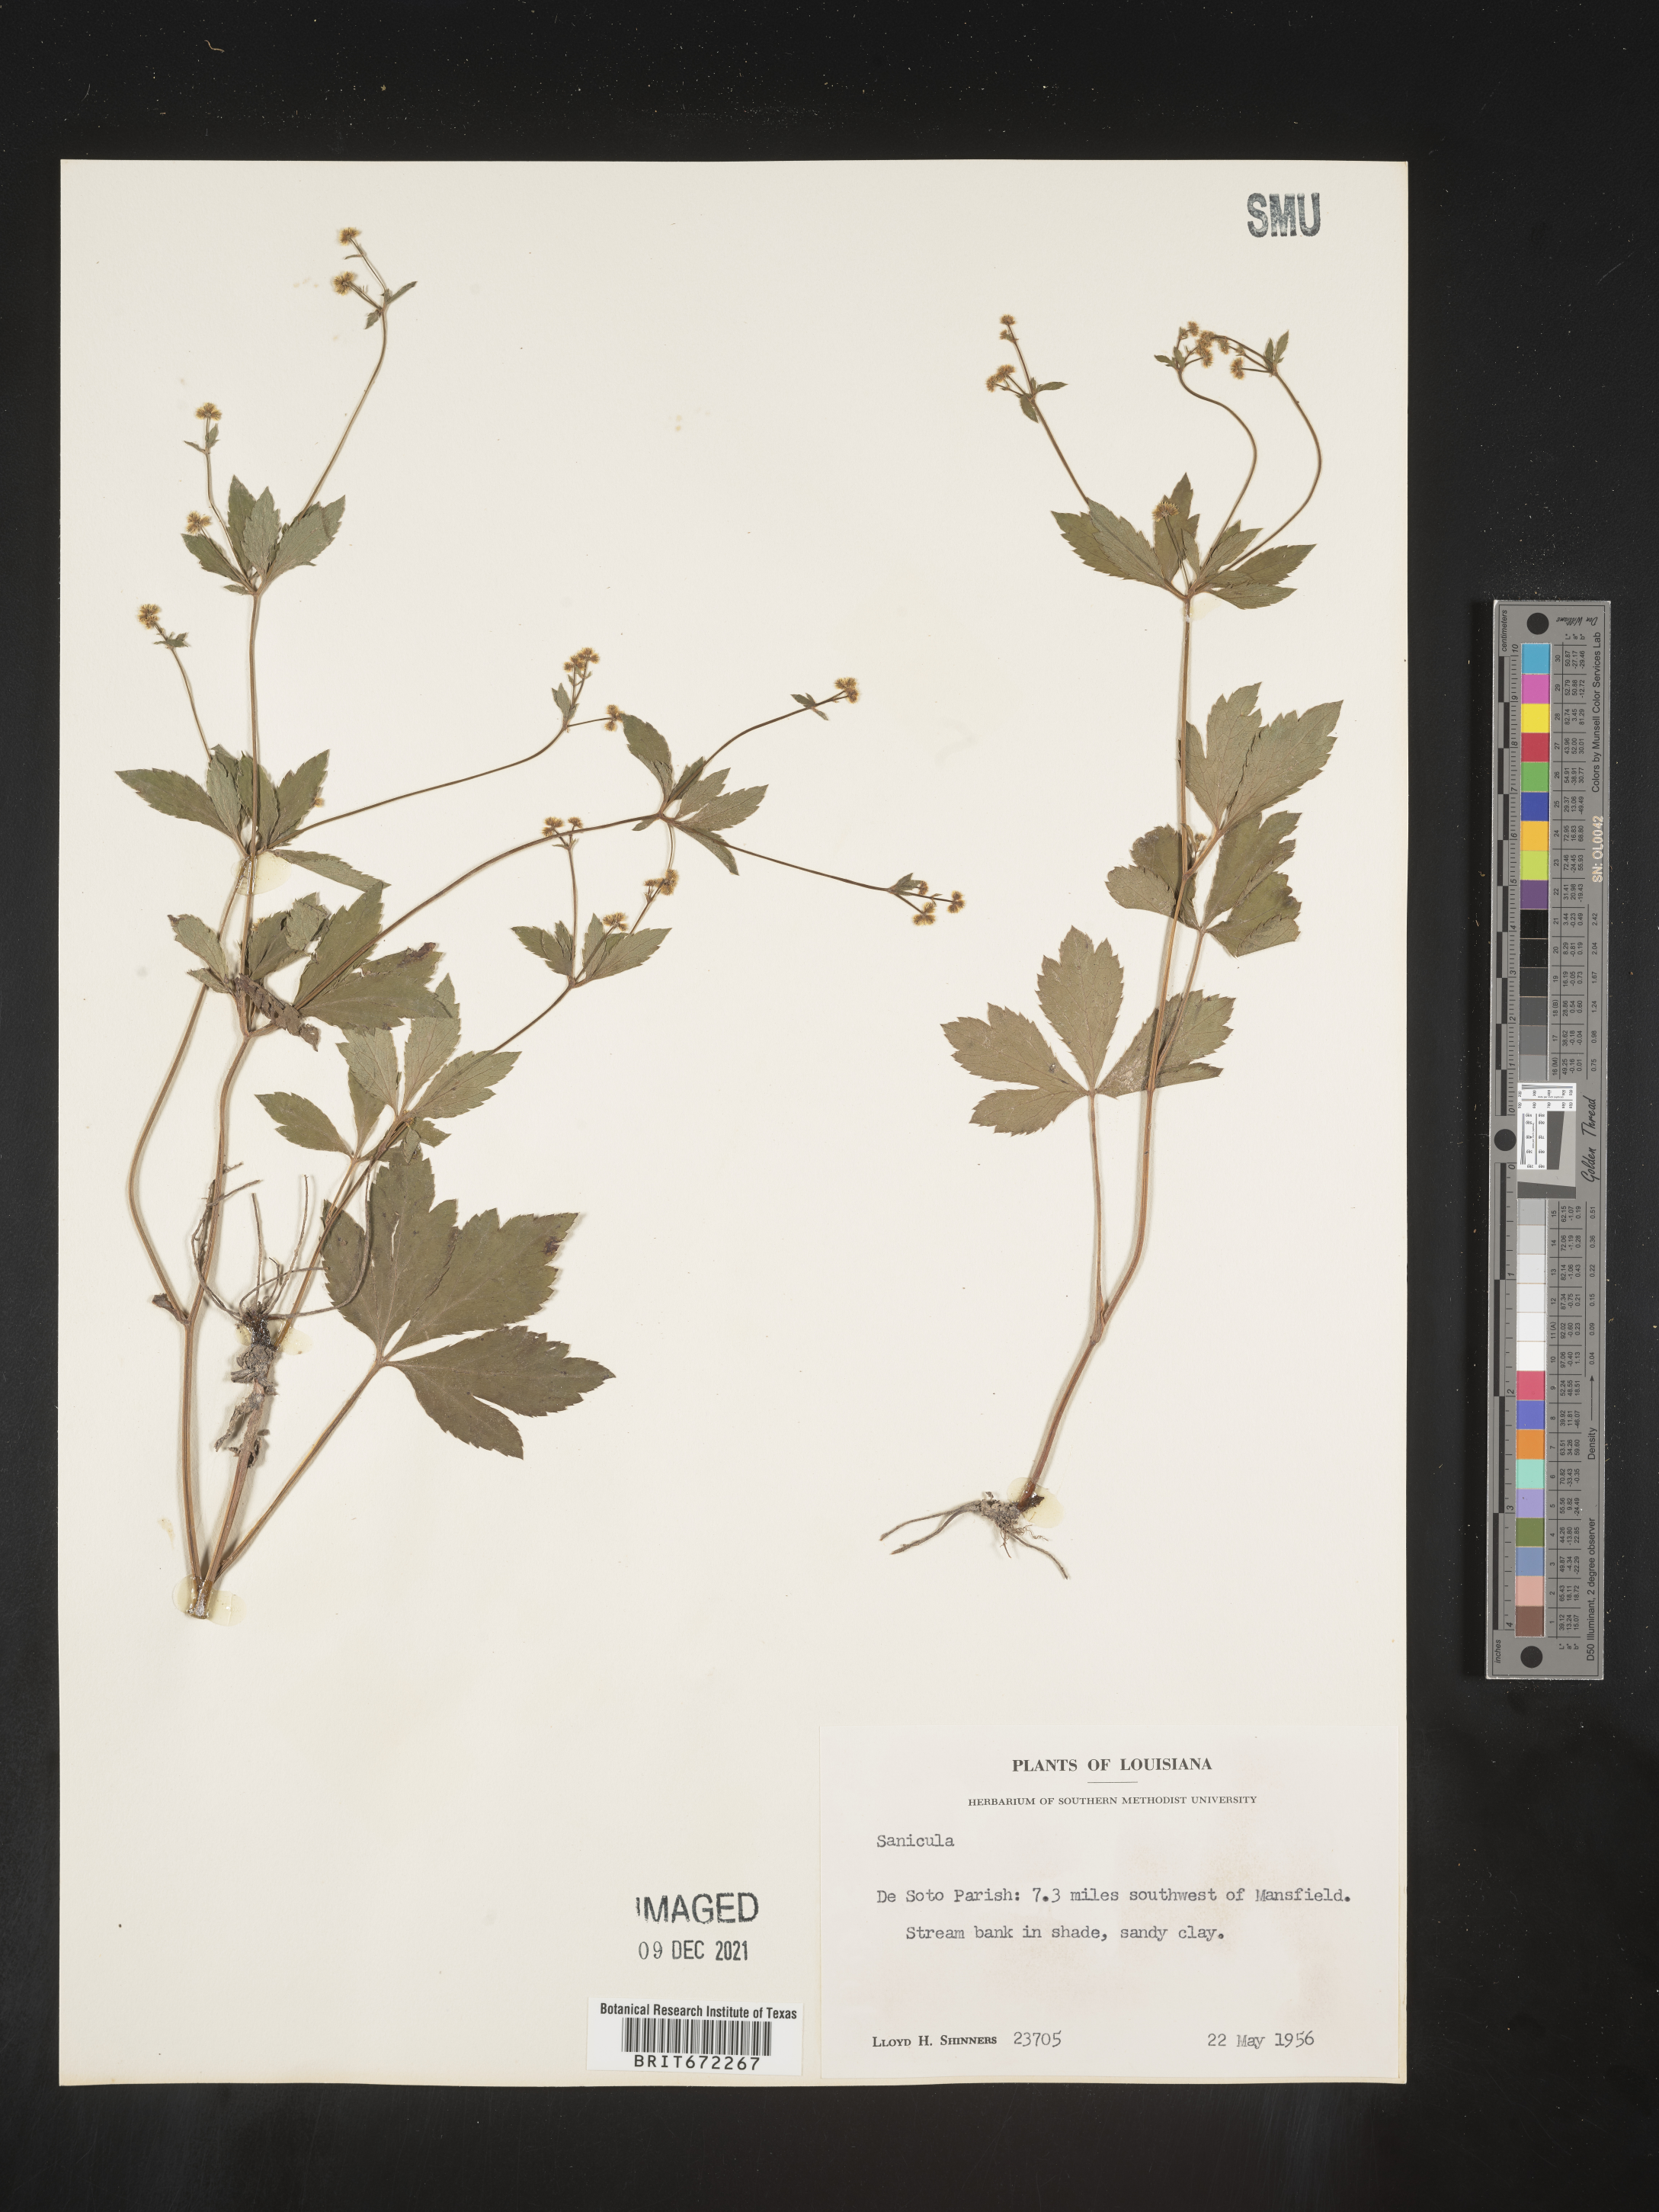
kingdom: Plantae
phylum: Tracheophyta
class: Magnoliopsida
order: Apiales
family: Apiaceae
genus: Sanicula
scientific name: Sanicula
